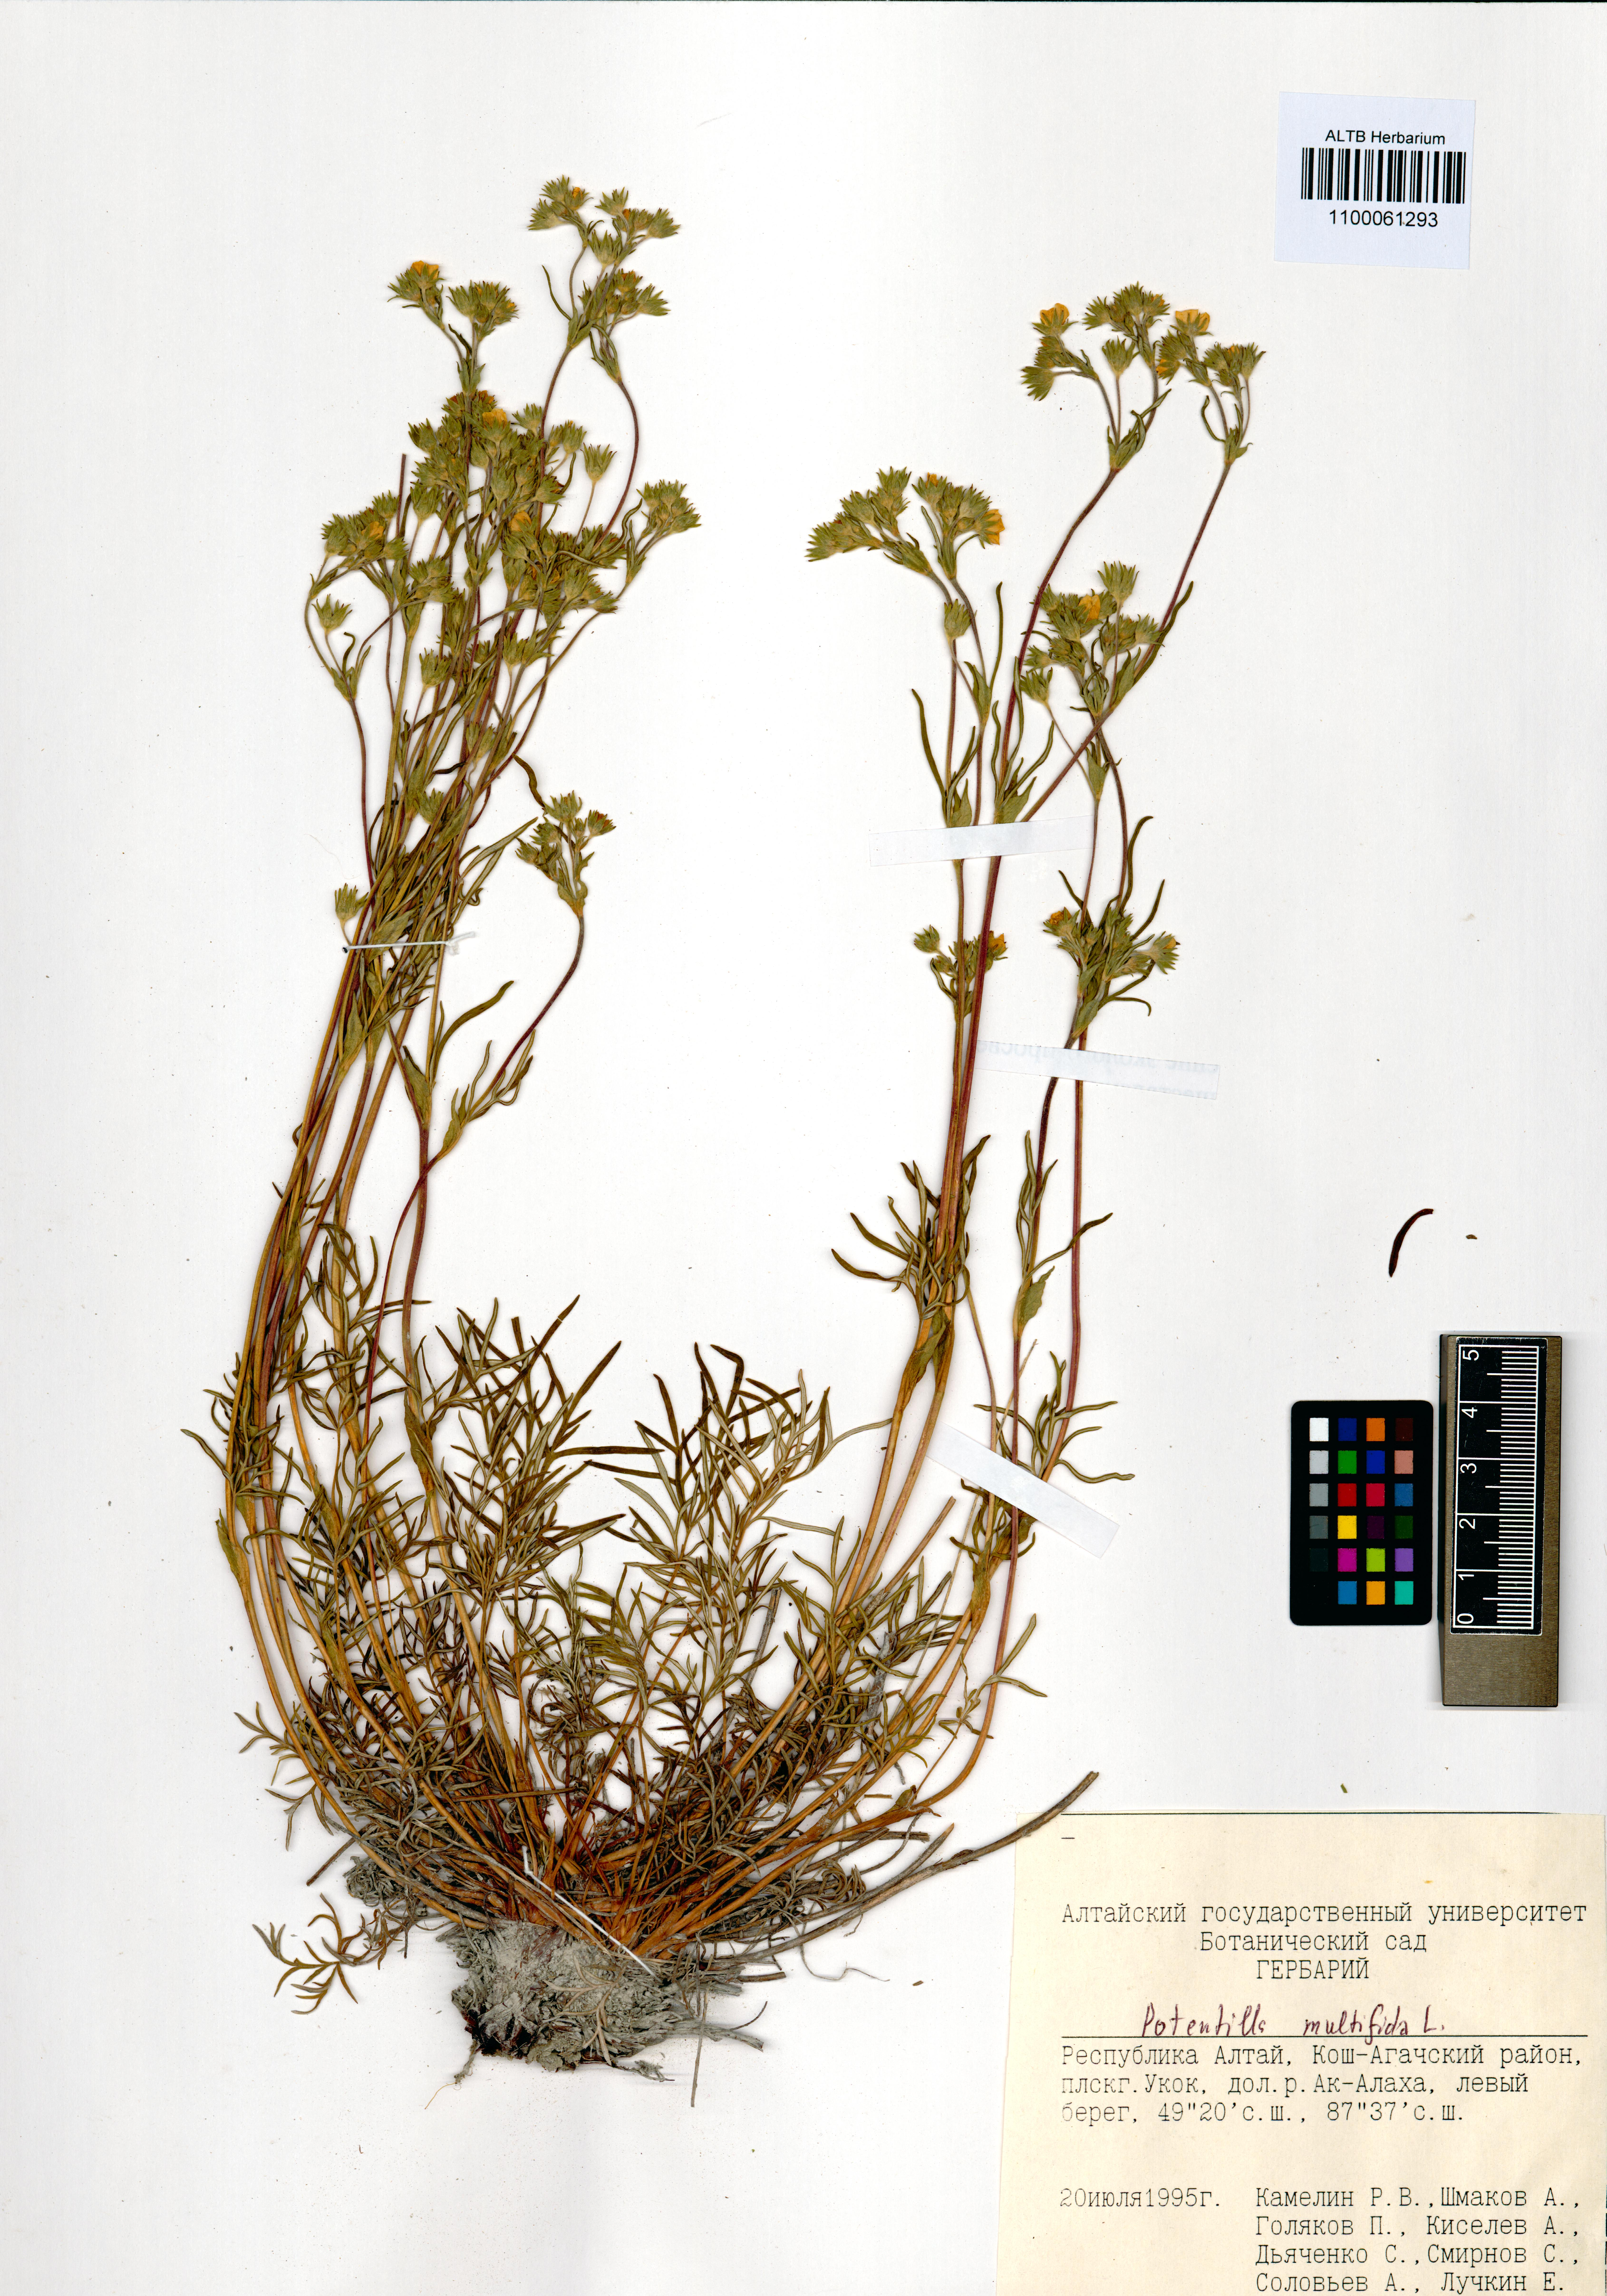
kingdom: Plantae
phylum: Tracheophyta
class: Magnoliopsida
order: Rosales
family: Rosaceae
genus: Potentilla
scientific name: Potentilla multifida
